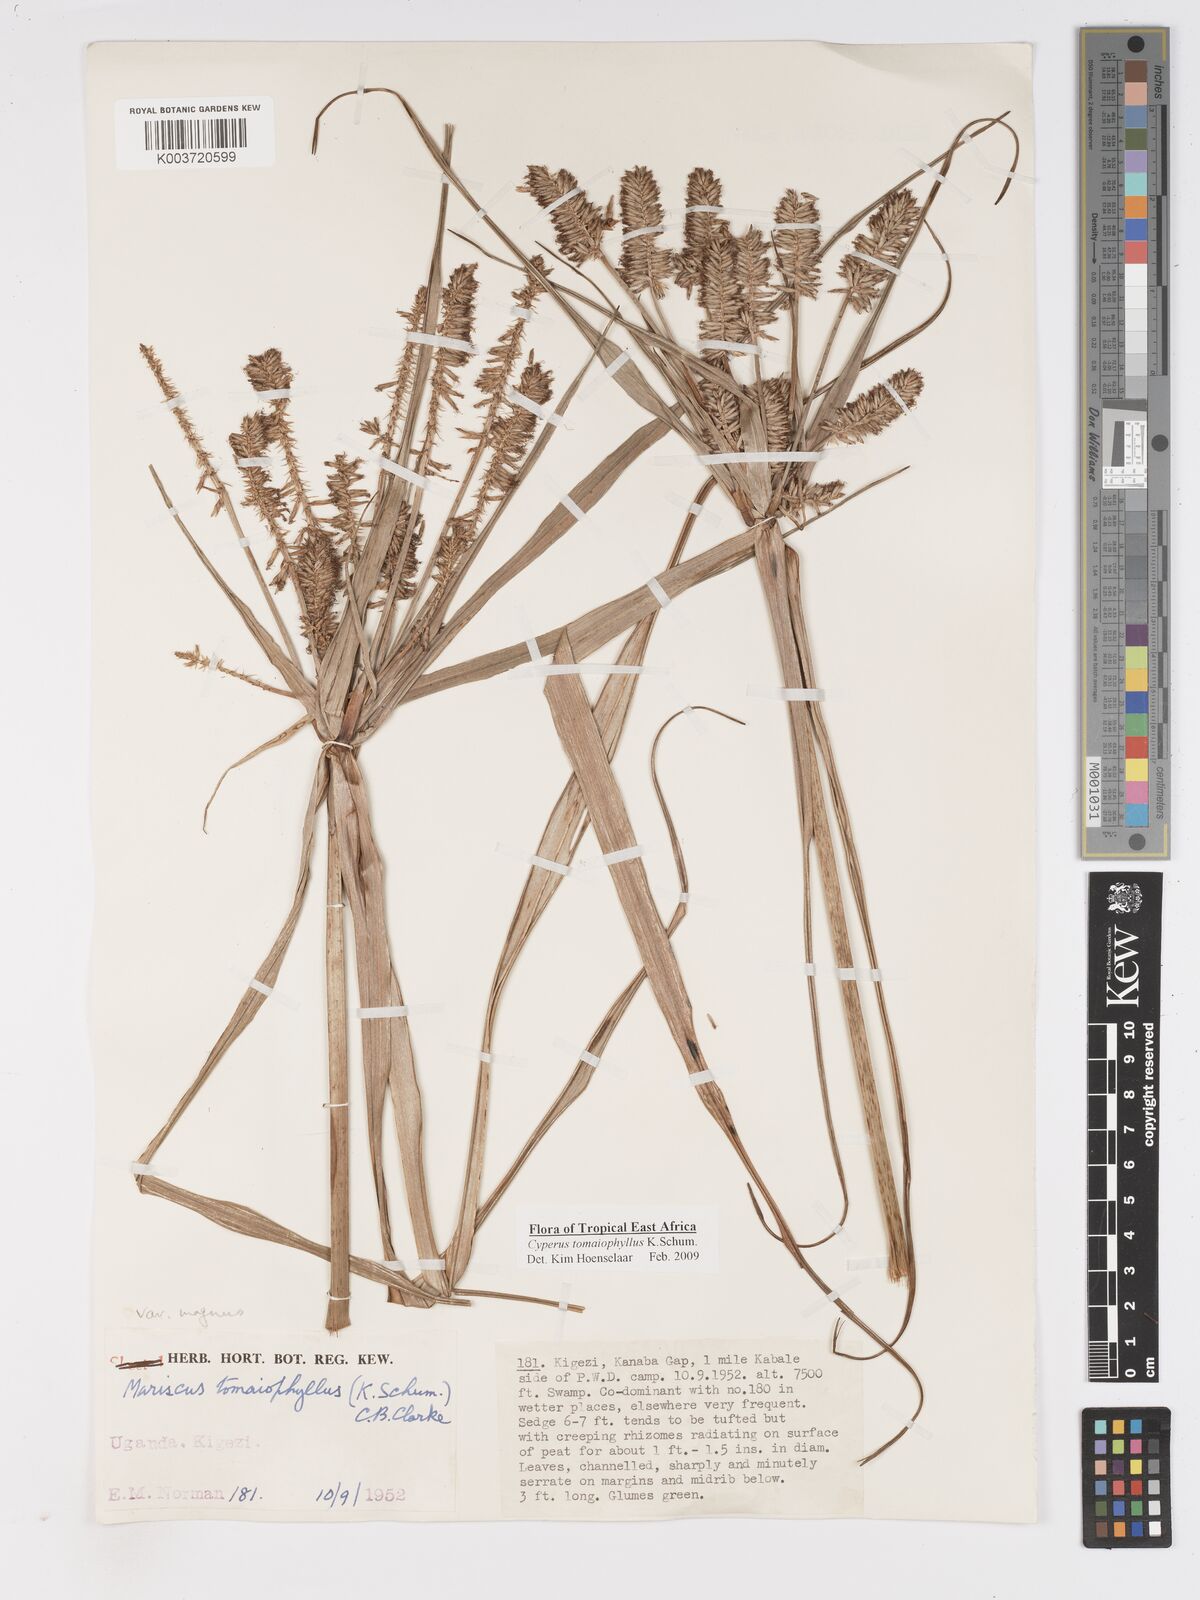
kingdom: Plantae
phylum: Tracheophyta
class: Liliopsida
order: Poales
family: Cyperaceae
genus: Cyperus
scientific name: Cyperus tomaiophyllus
